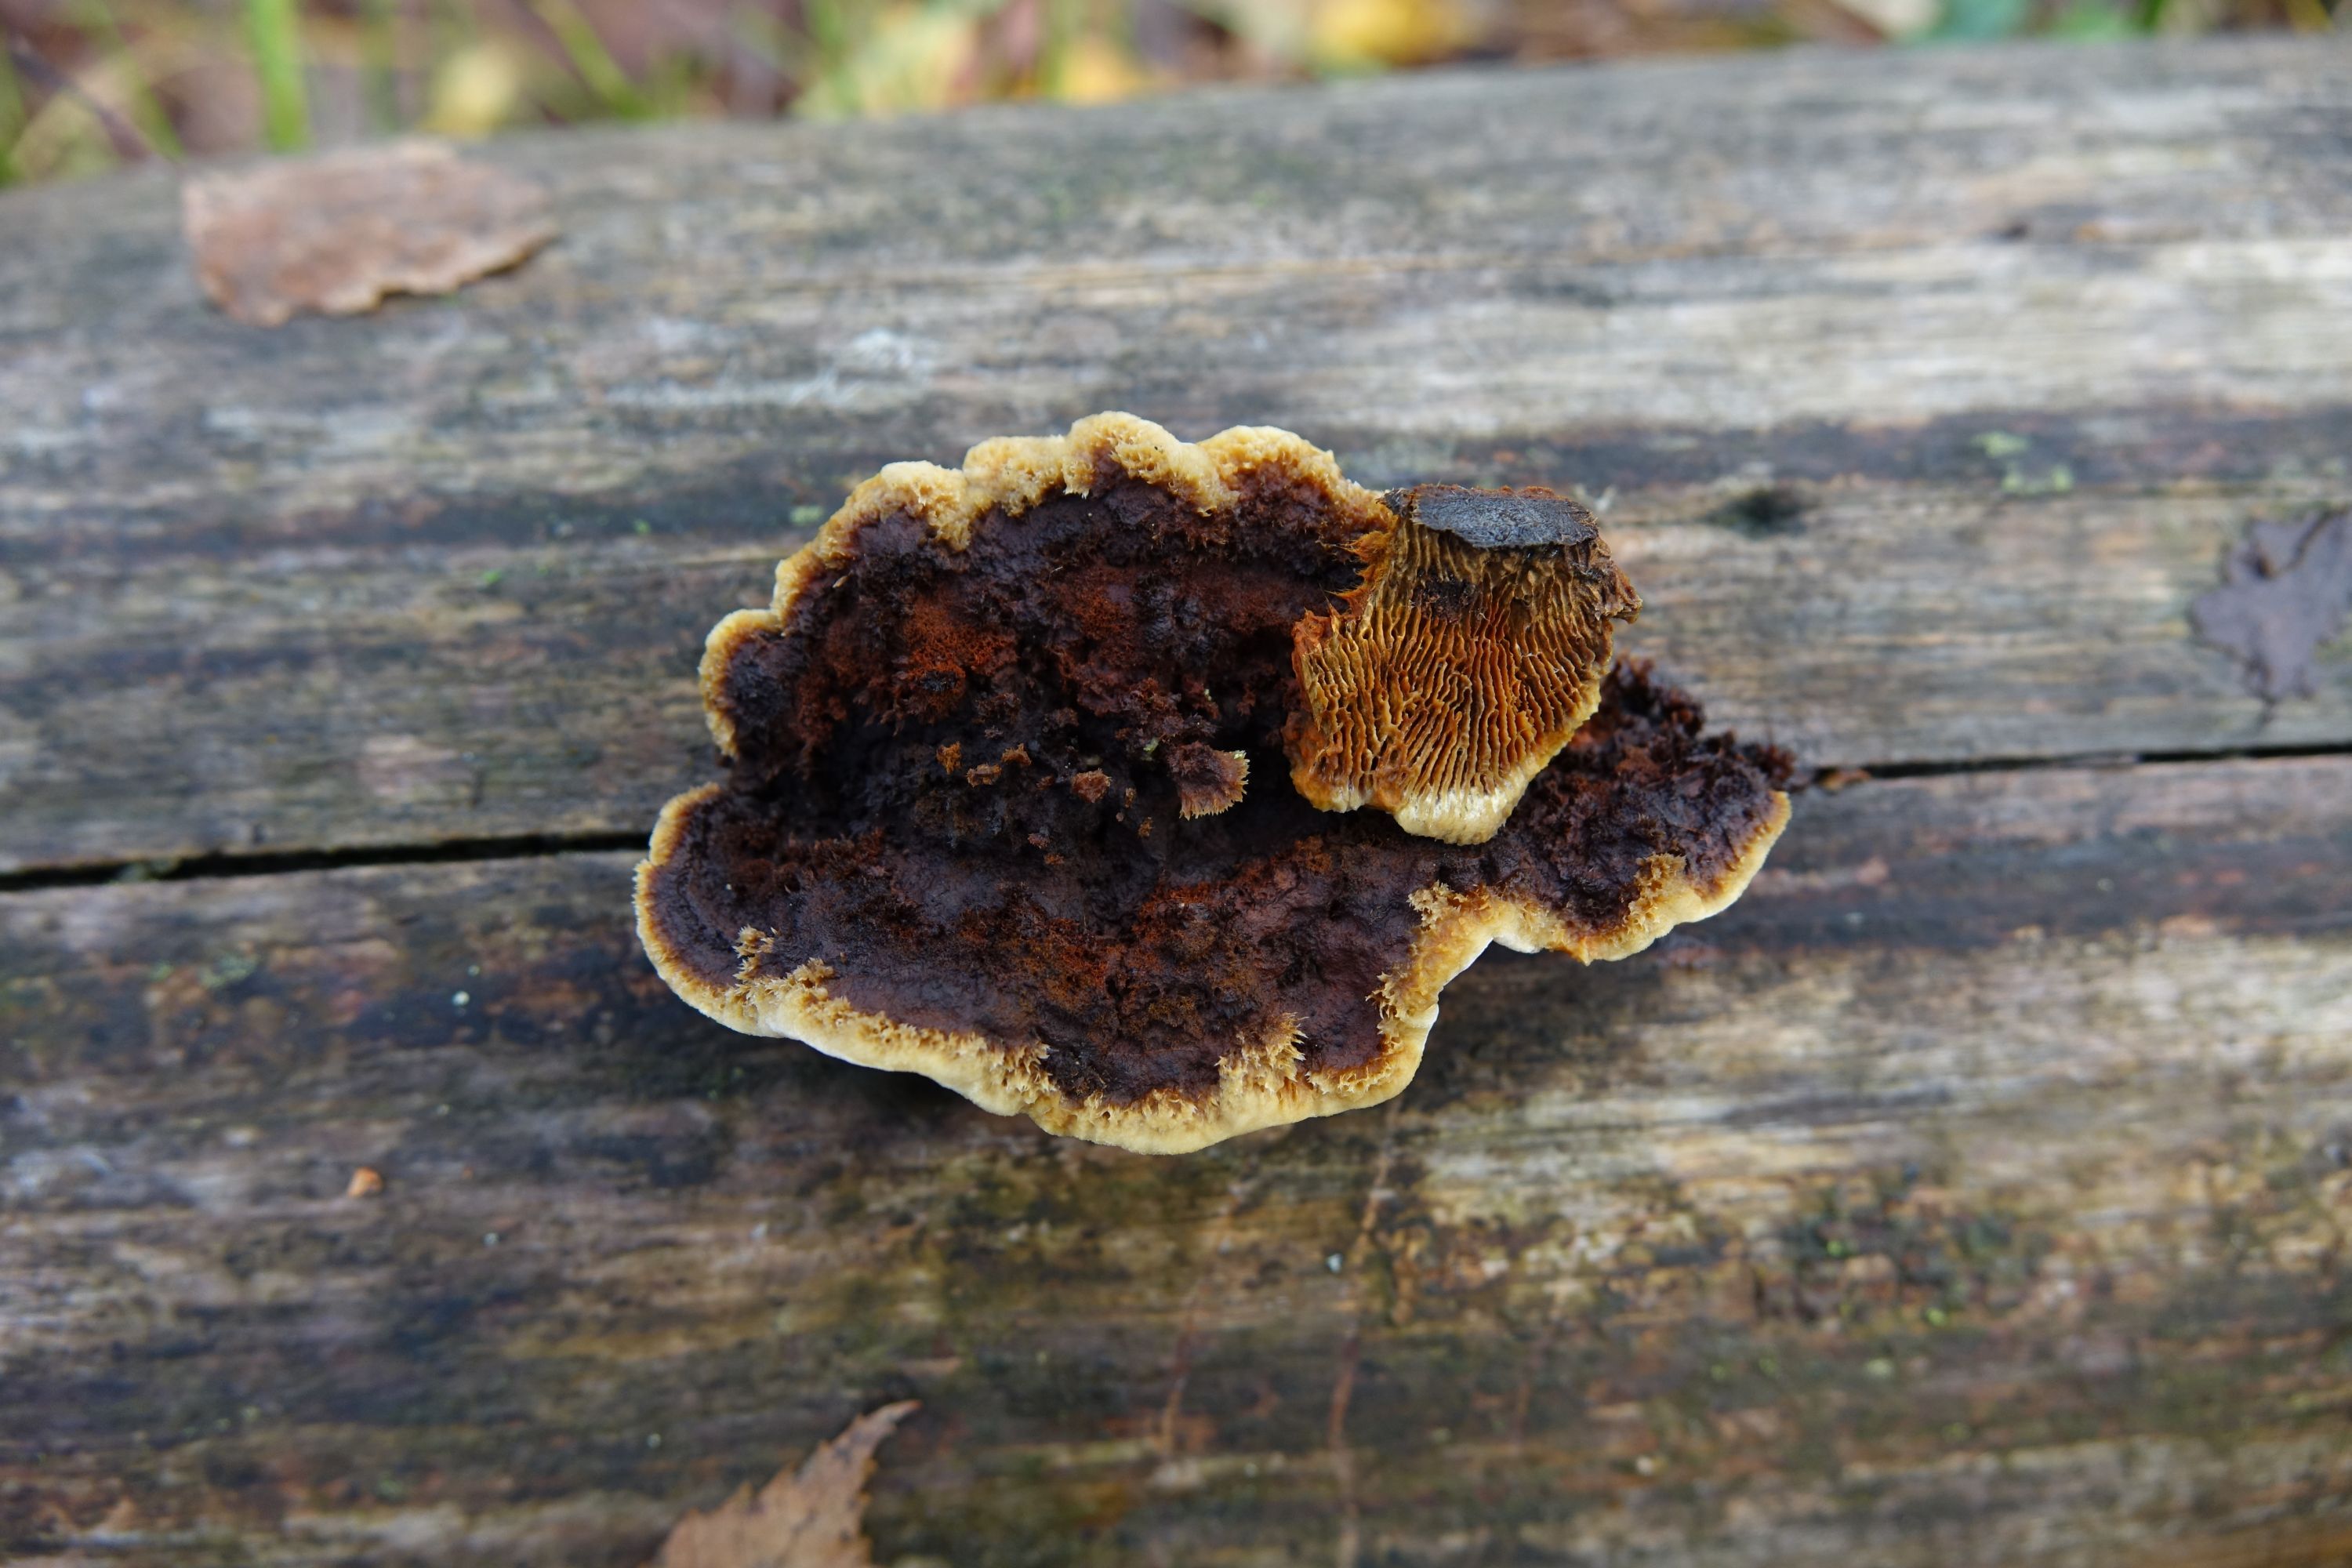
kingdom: Fungi
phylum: Basidiomycota
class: Agaricomycetes
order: Gloeophyllales
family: Gloeophyllaceae
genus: Gloeophyllum
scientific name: Gloeophyllum sepiarium
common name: Conifer mazegill
